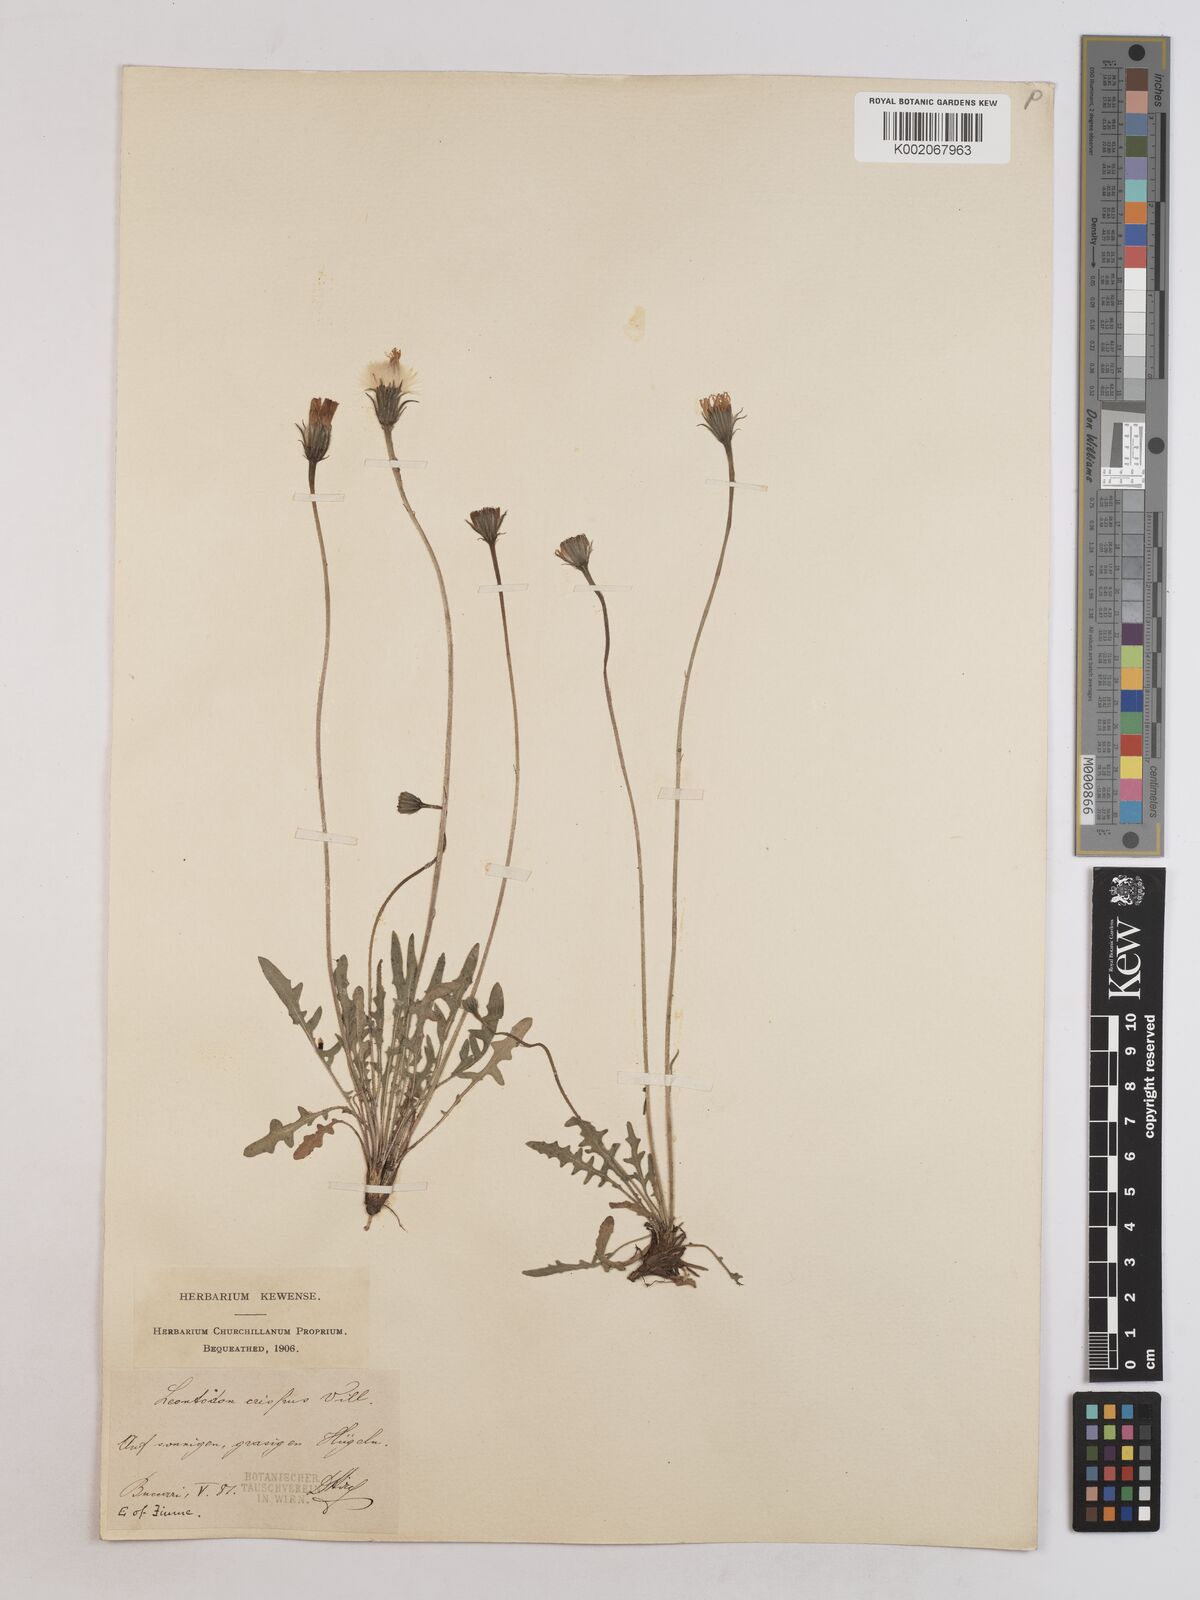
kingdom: Plantae
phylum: Tracheophyta
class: Magnoliopsida
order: Asterales
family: Asteraceae
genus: Leontodon
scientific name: Leontodon crispus
